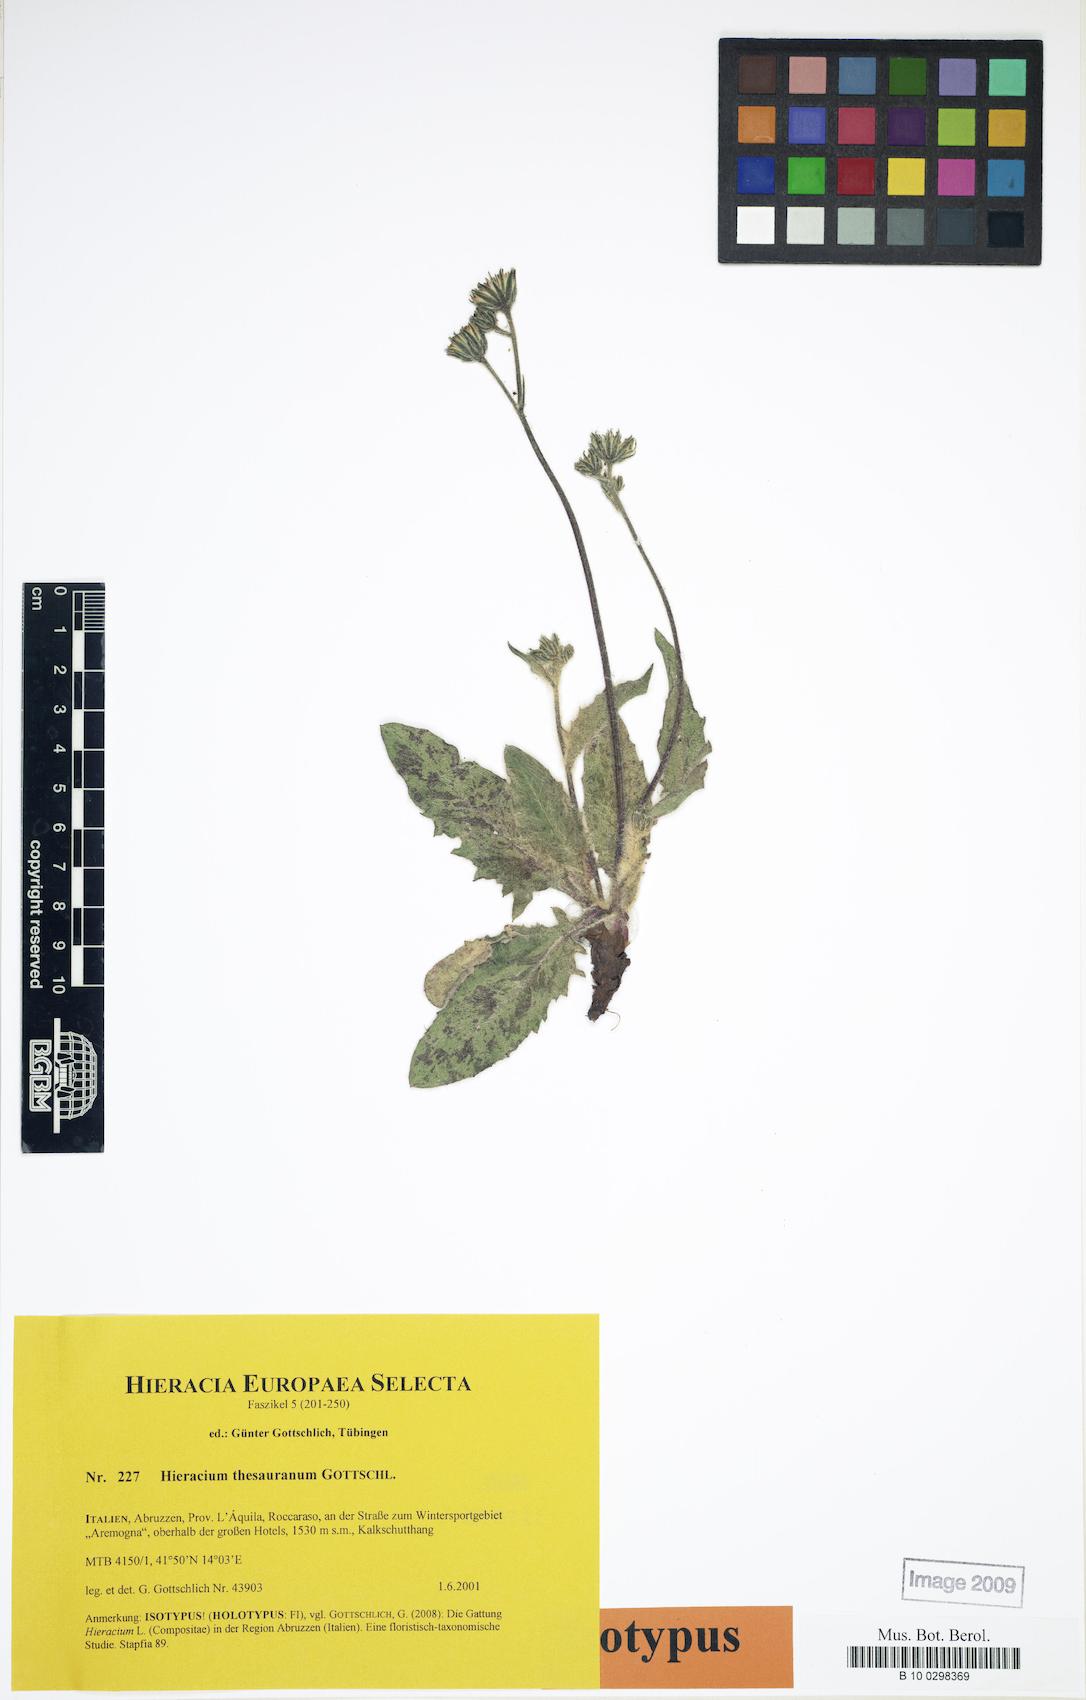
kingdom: Plantae
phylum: Tracheophyta
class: Magnoliopsida
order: Asterales
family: Asteraceae
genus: Hieracium
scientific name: Hieracium thesauranum
